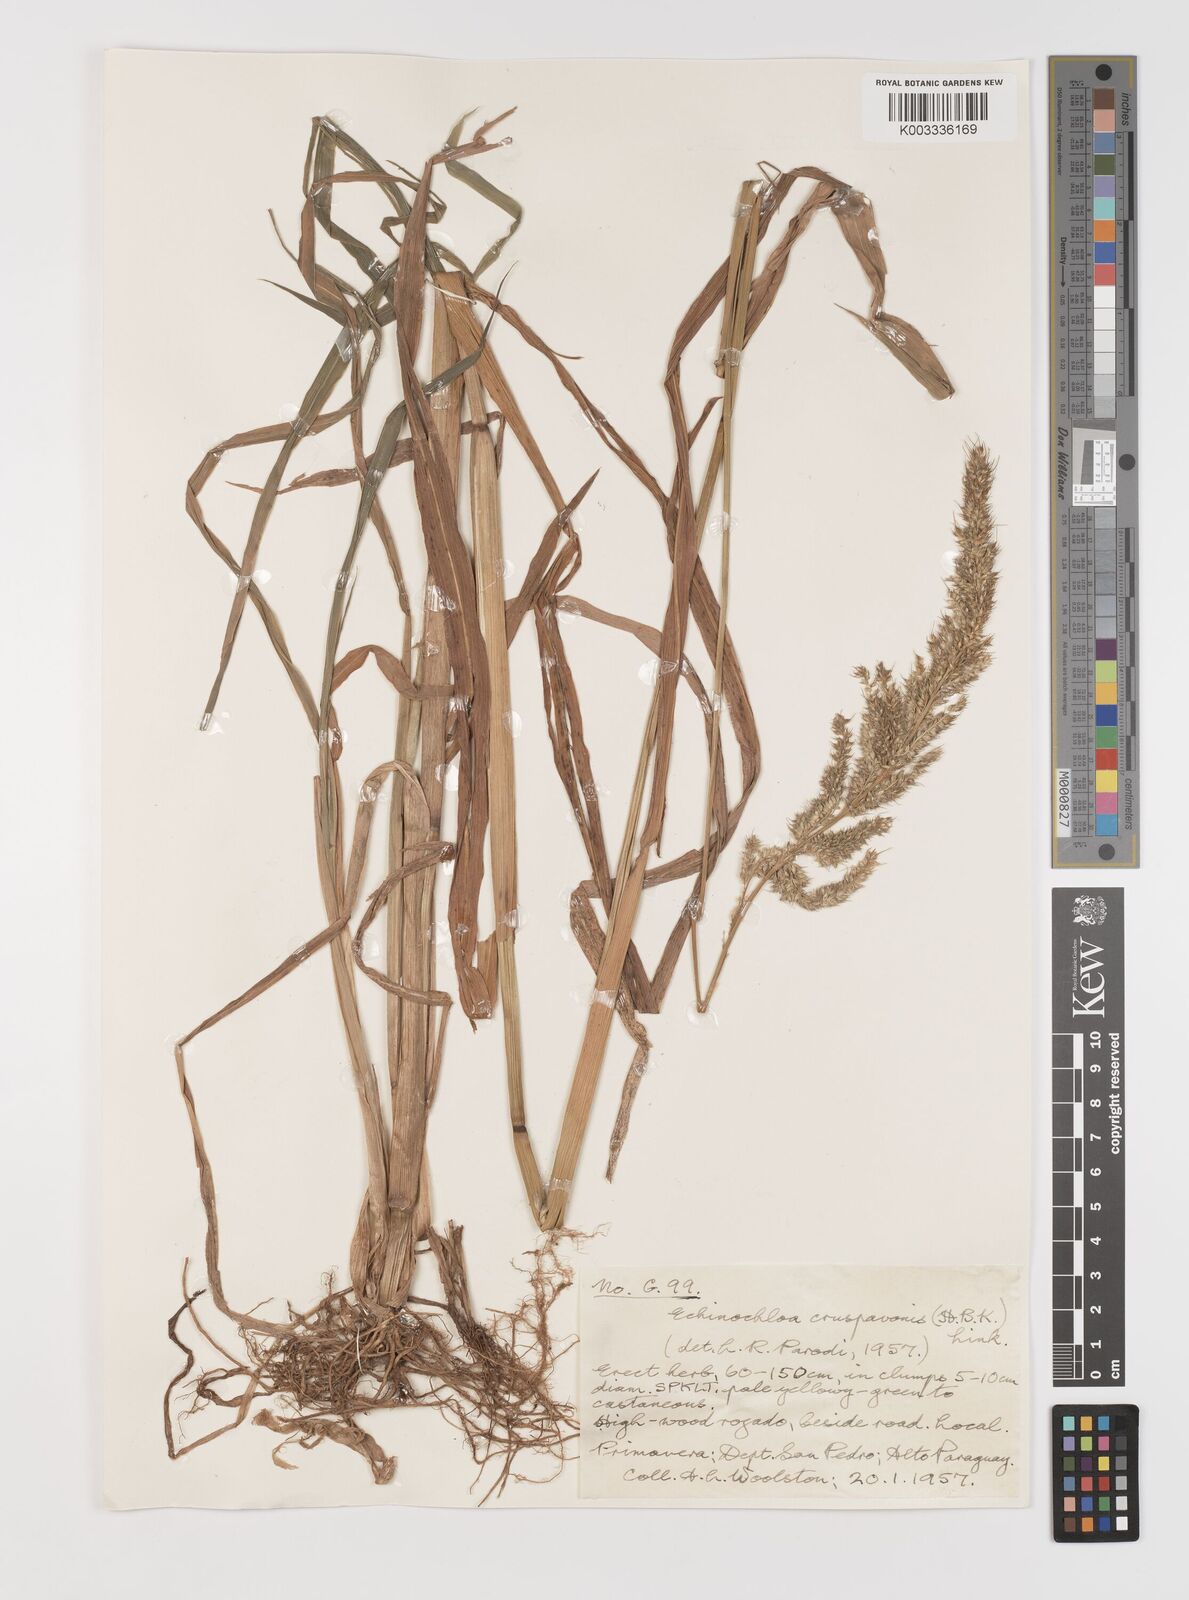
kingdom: Plantae
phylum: Tracheophyta
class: Liliopsida
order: Poales
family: Poaceae
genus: Echinochloa
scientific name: Echinochloa crus-pavonis
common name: Gulf cockspur grass
